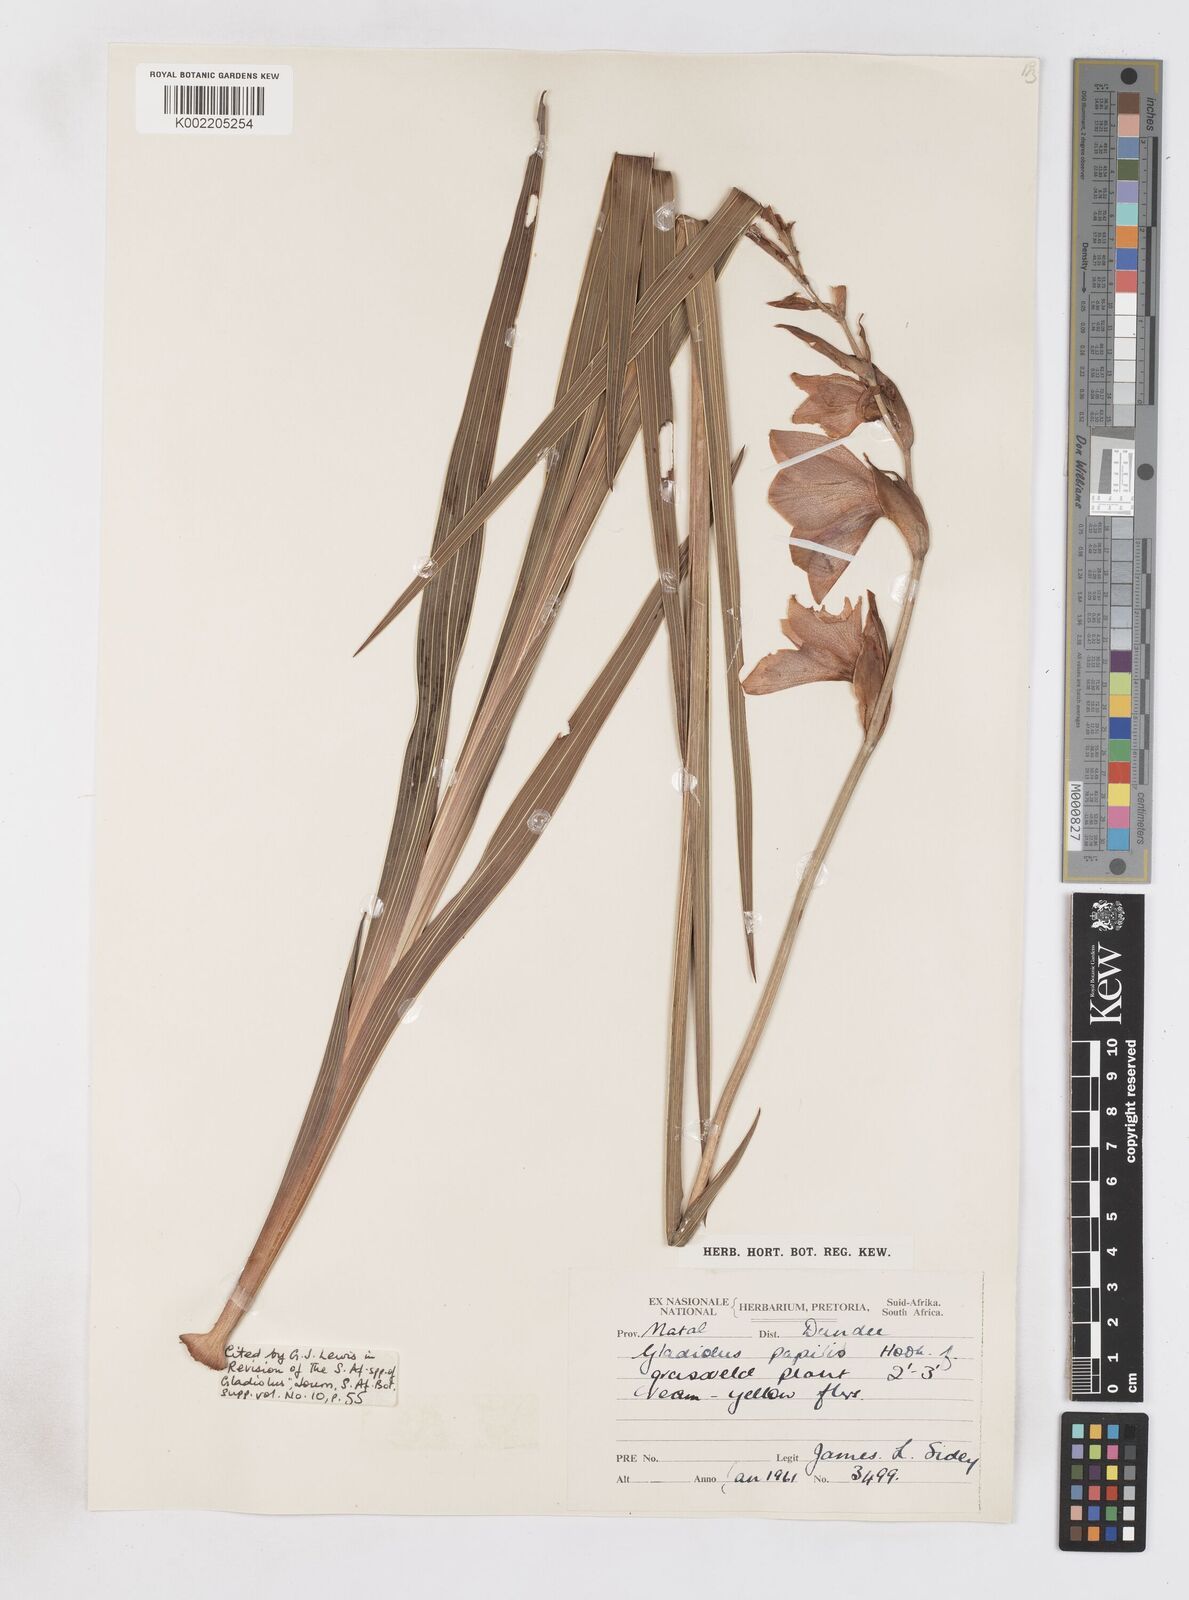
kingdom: Plantae
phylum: Tracheophyta
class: Liliopsida
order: Asparagales
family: Iridaceae
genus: Gladiolus
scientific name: Gladiolus papilio
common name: Goldblotch gladiolus
